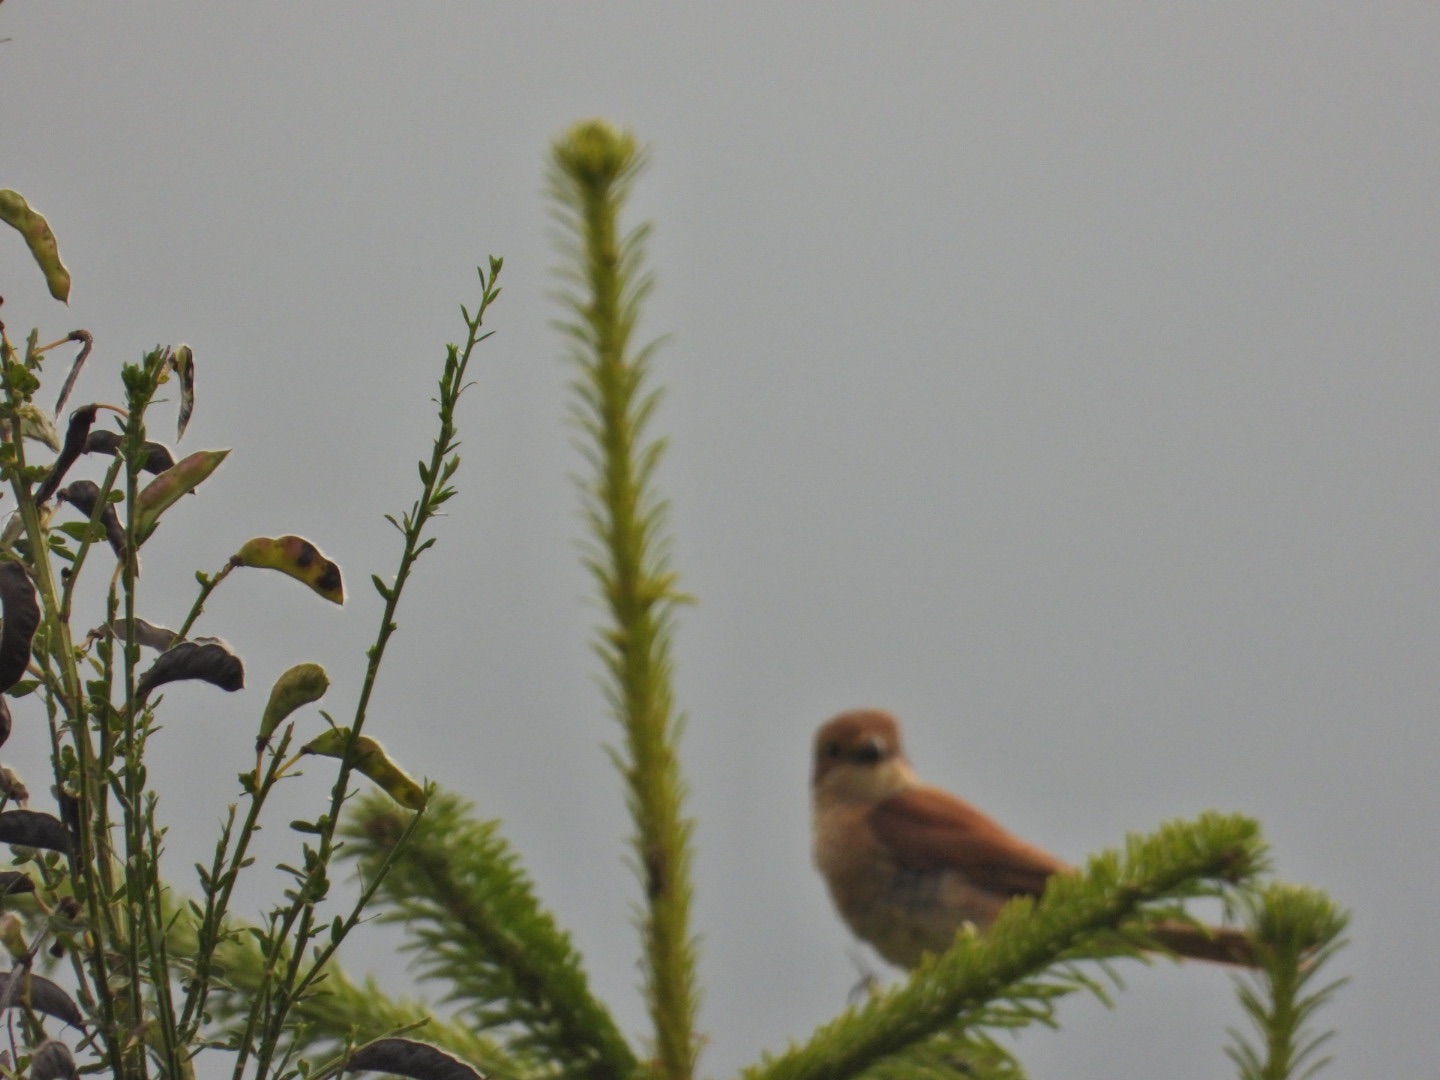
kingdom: Animalia
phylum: Chordata
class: Aves
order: Passeriformes
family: Laniidae
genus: Lanius
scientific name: Lanius collurio
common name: Rødrygget tornskade
